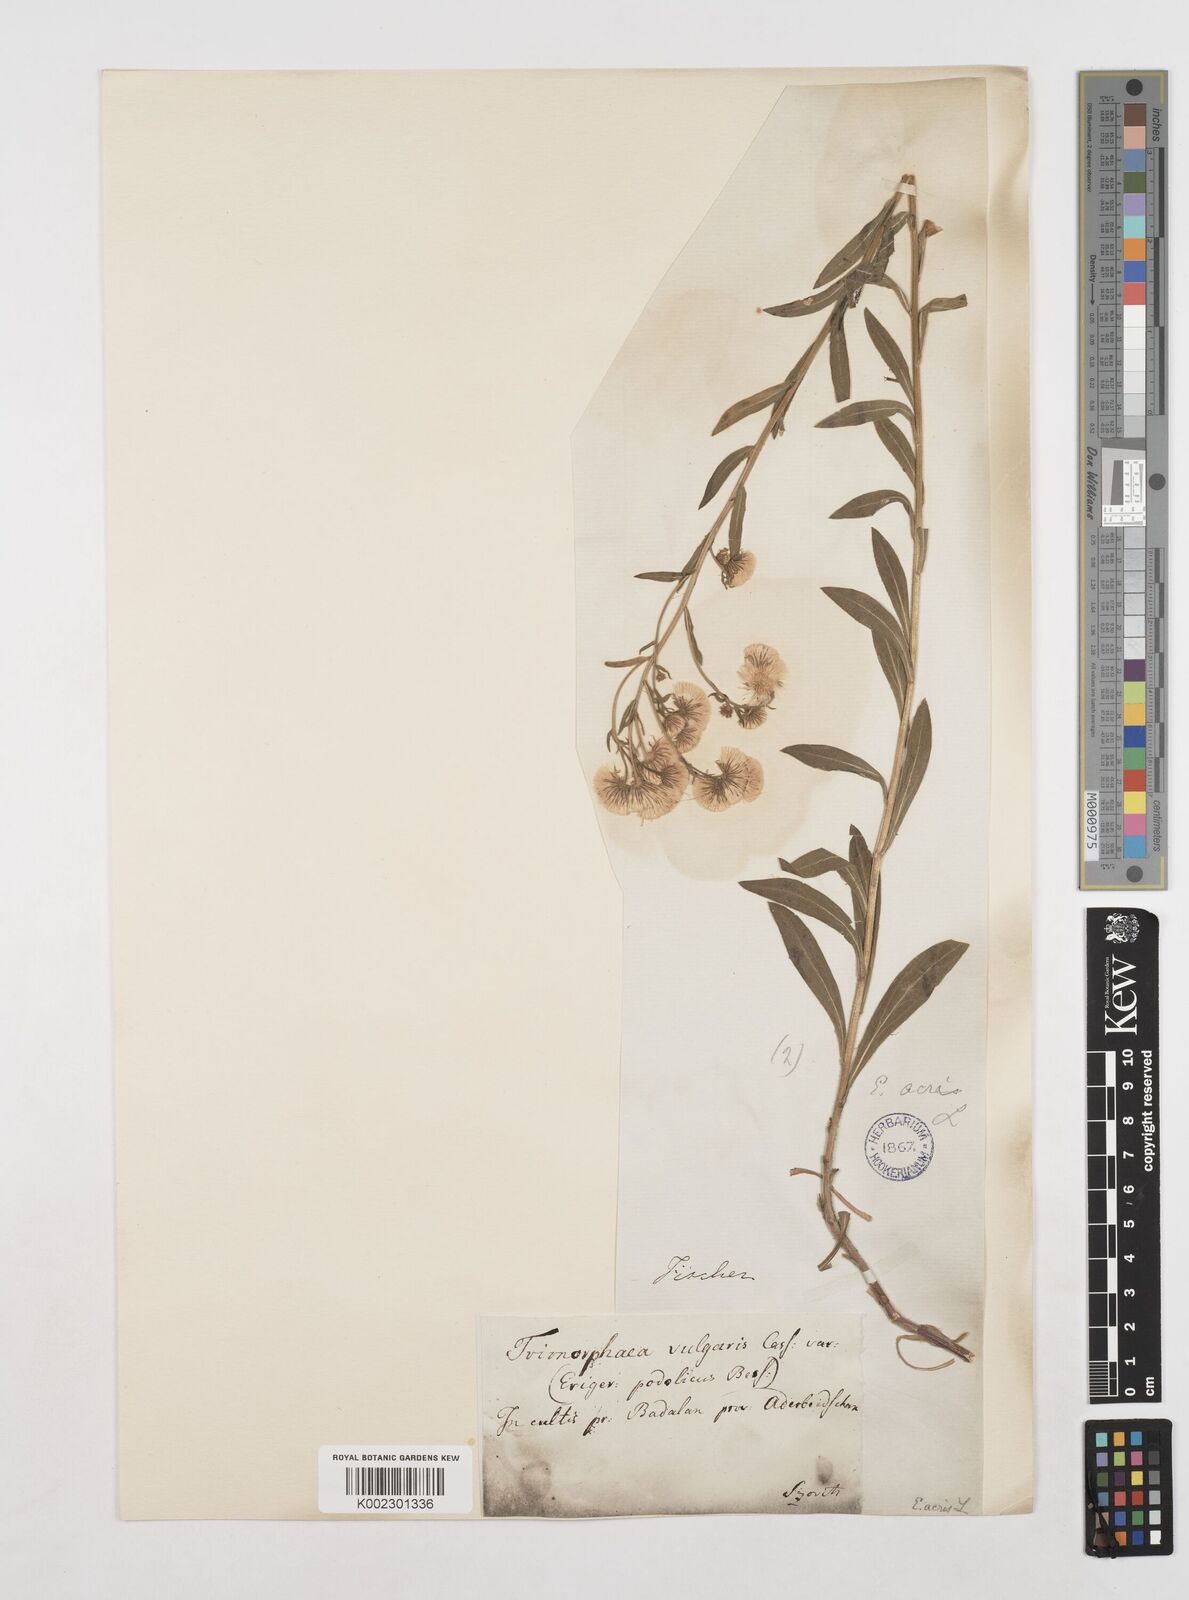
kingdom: Plantae
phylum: Tracheophyta
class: Magnoliopsida
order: Asterales
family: Asteraceae
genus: Erigeron
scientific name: Erigeron acris
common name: Blue fleabane
